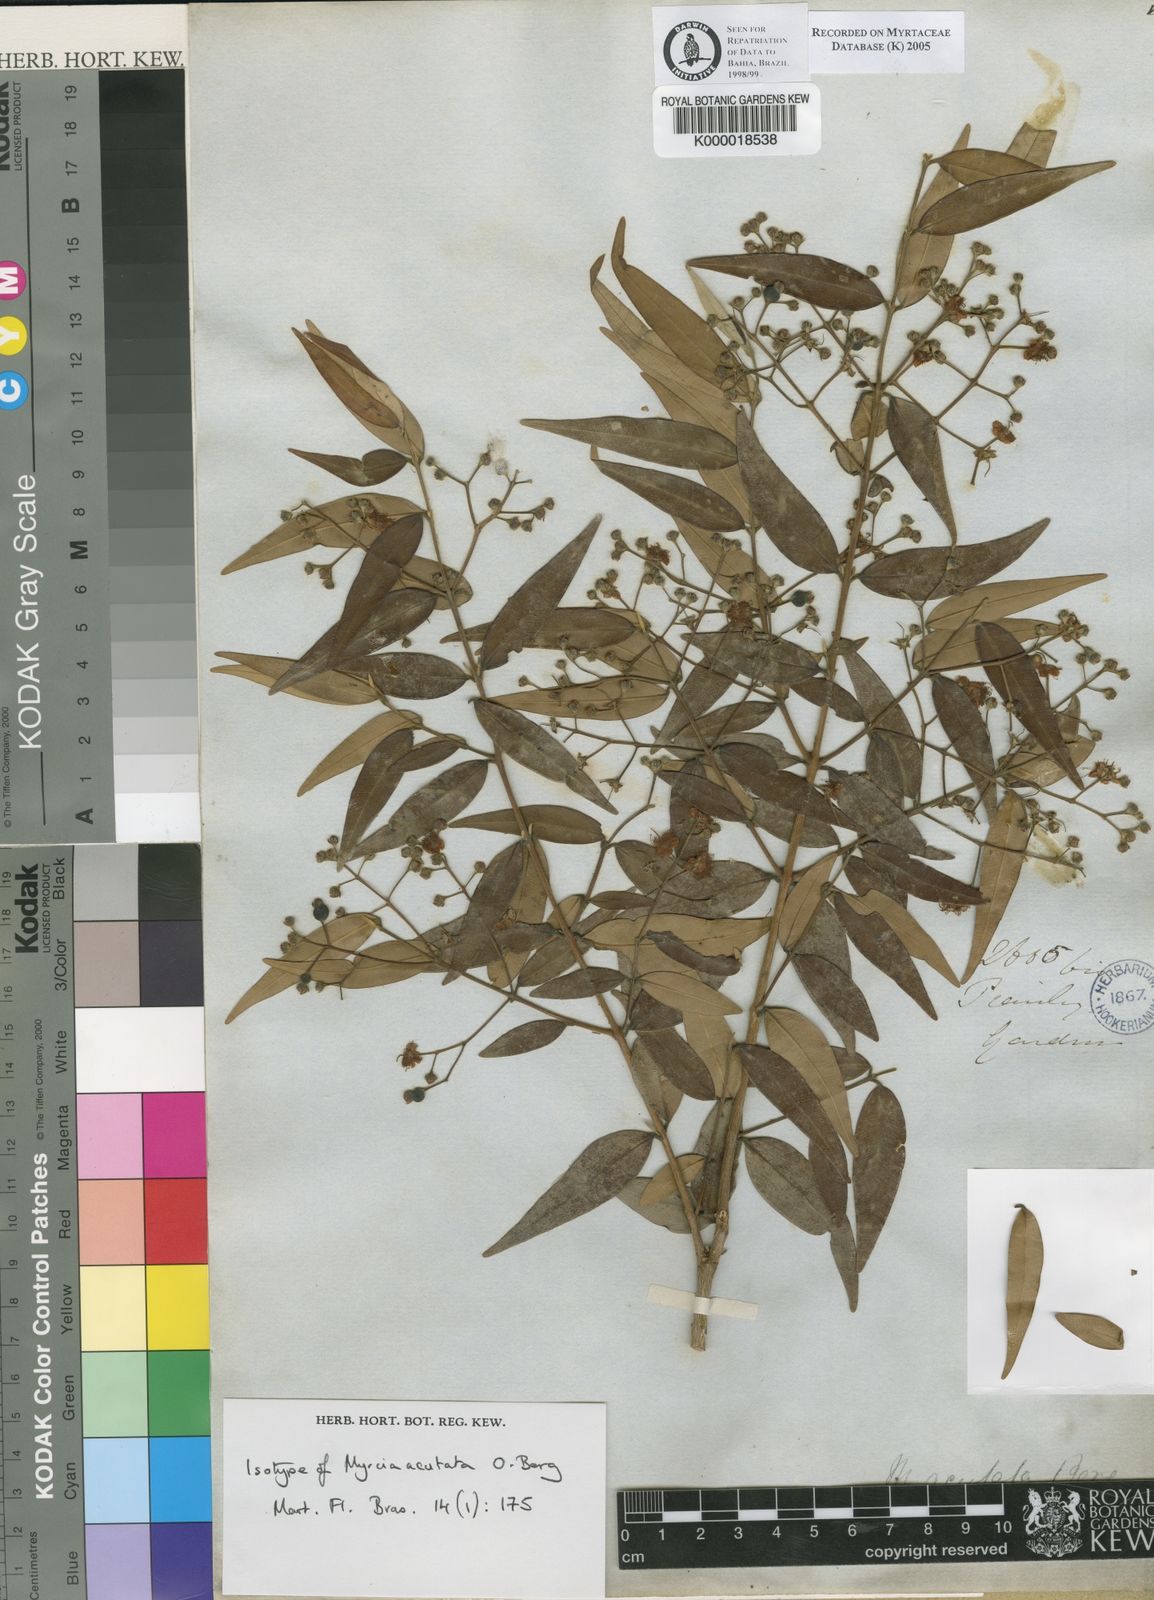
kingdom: Plantae
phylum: Tracheophyta
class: Magnoliopsida
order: Myrtales
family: Myrtaceae
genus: Myrcia
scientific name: Myrcia splendens
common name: Surinam cherry
